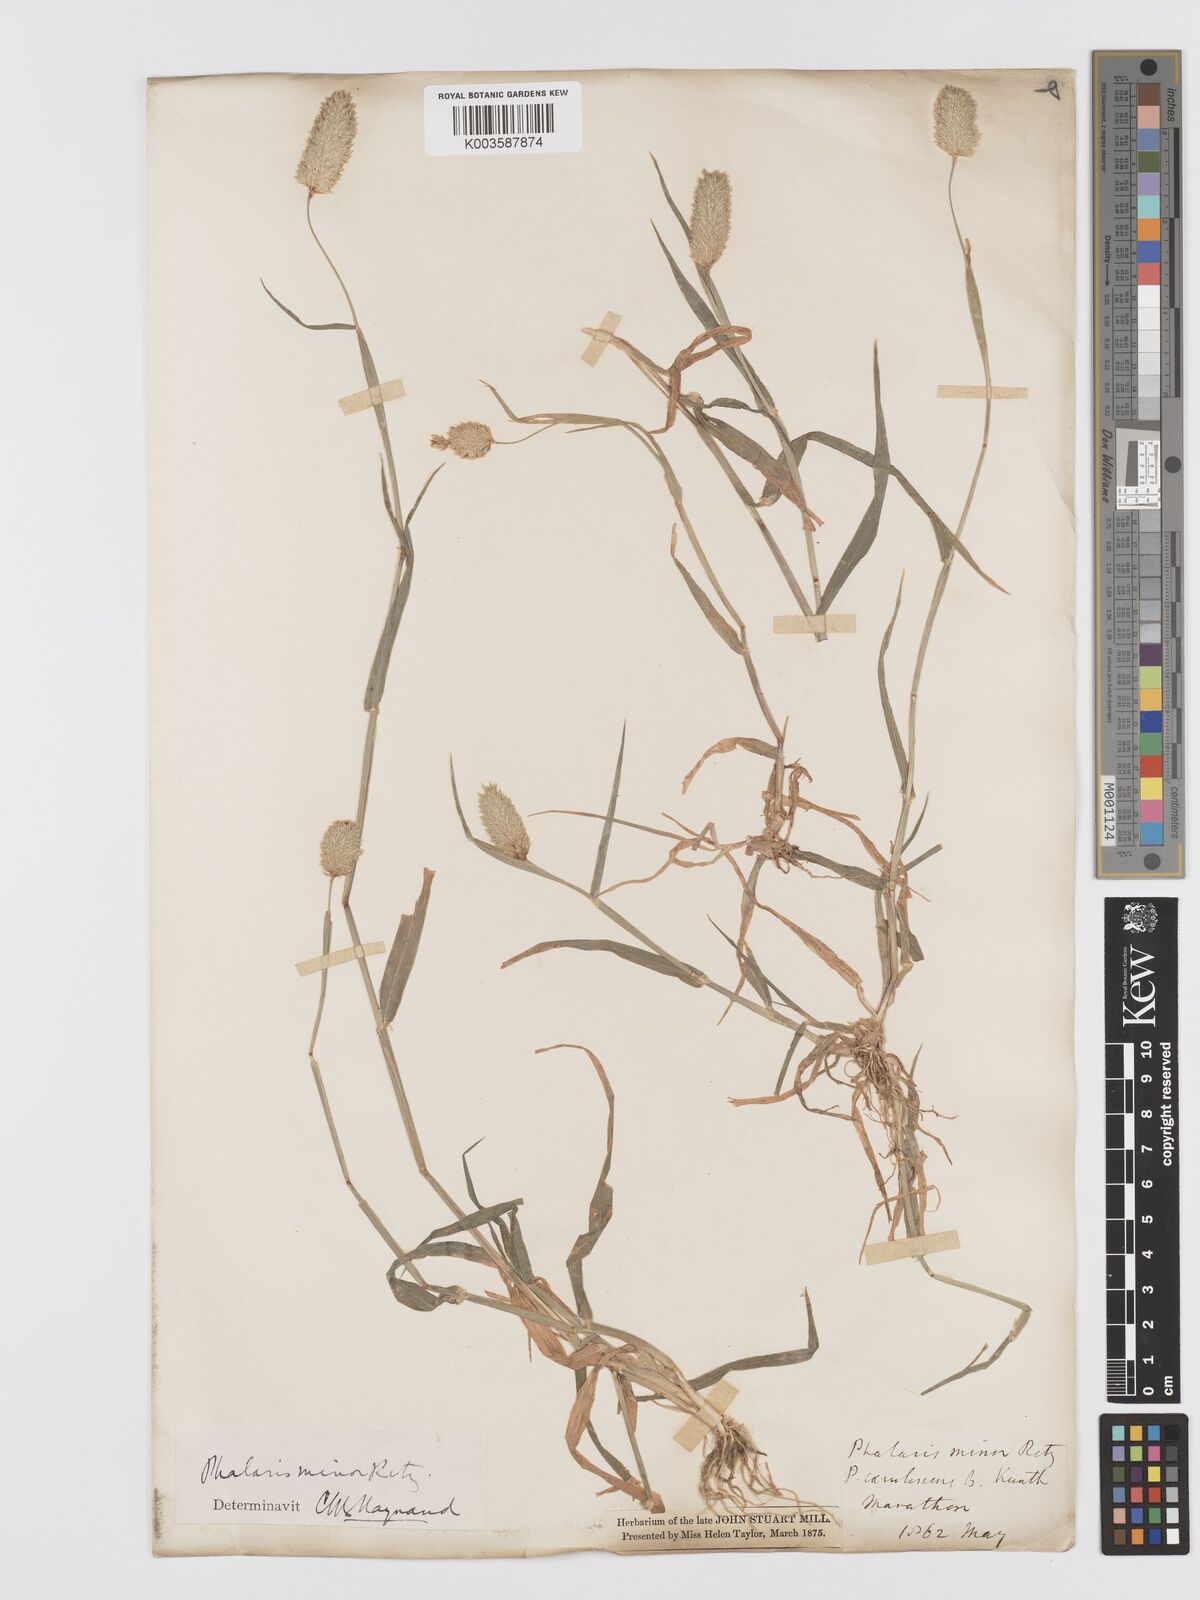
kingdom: Plantae
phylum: Tracheophyta
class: Liliopsida
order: Poales
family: Poaceae
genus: Phalaris
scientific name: Phalaris minor
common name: Littleseed canarygrass
